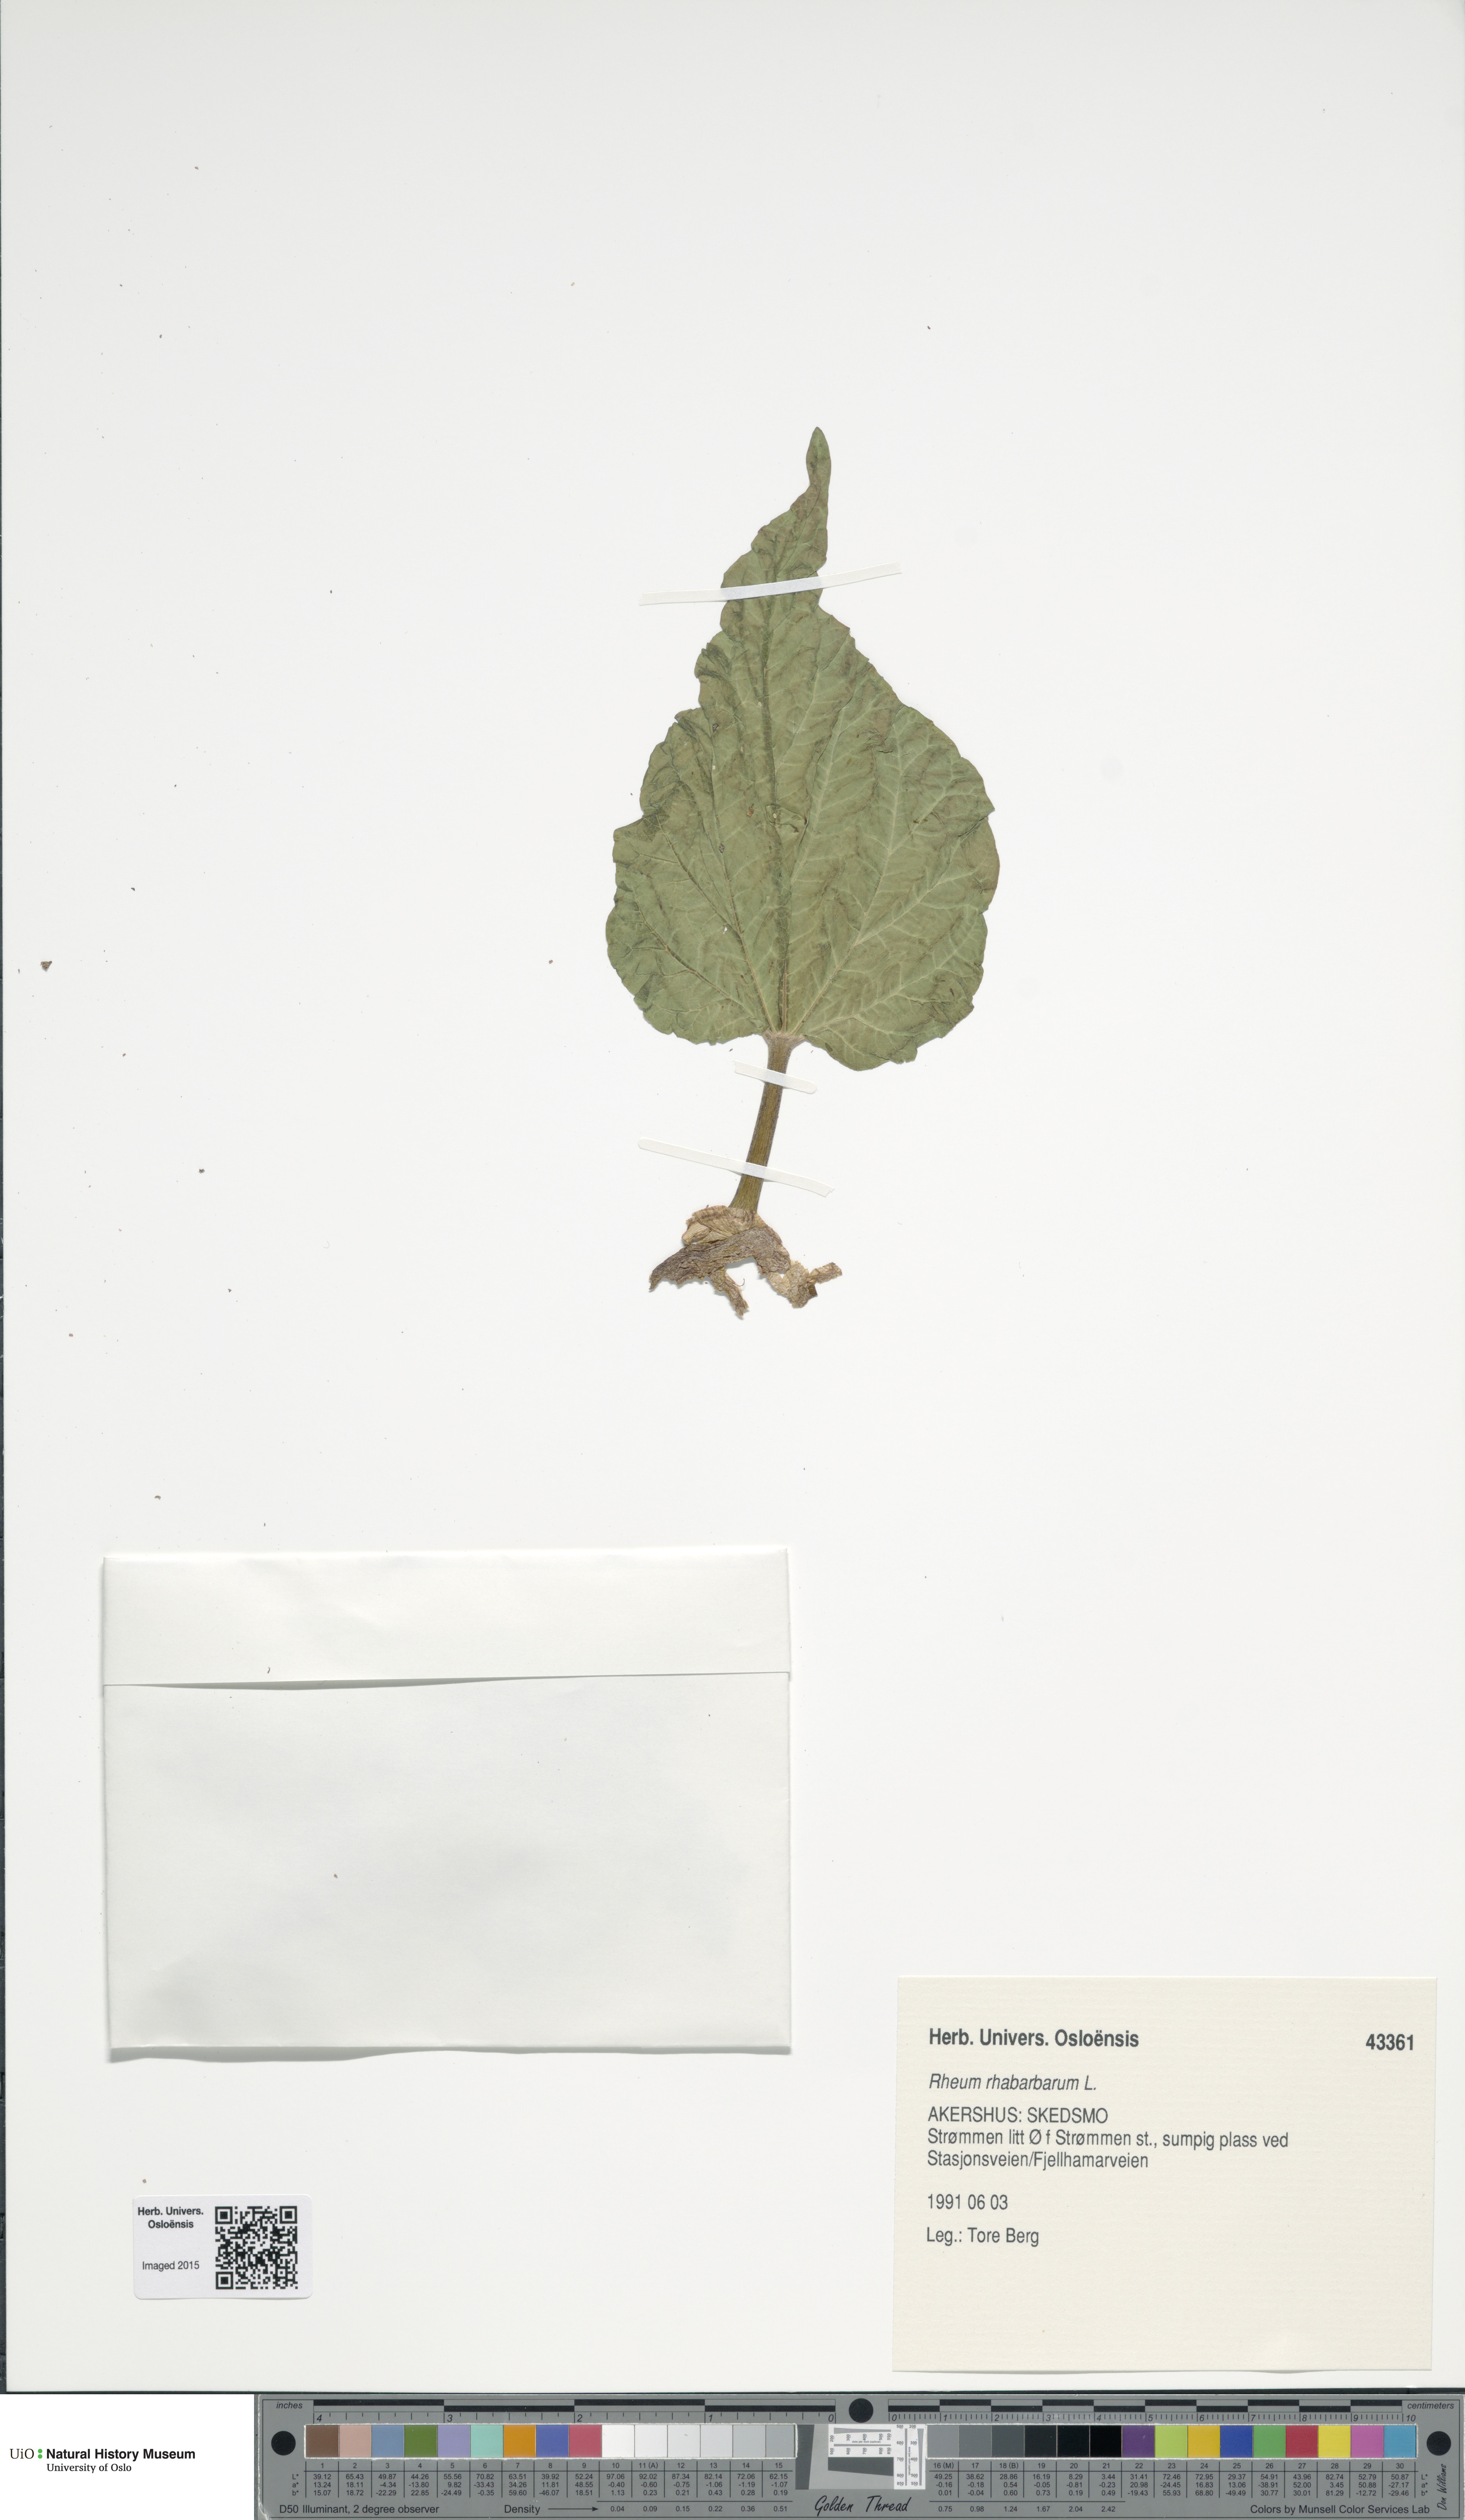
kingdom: Plantae
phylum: Tracheophyta
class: Magnoliopsida
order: Caryophyllales
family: Polygonaceae
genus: Rheum
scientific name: Rheum rhabarbarum
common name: Garden rhubarb
